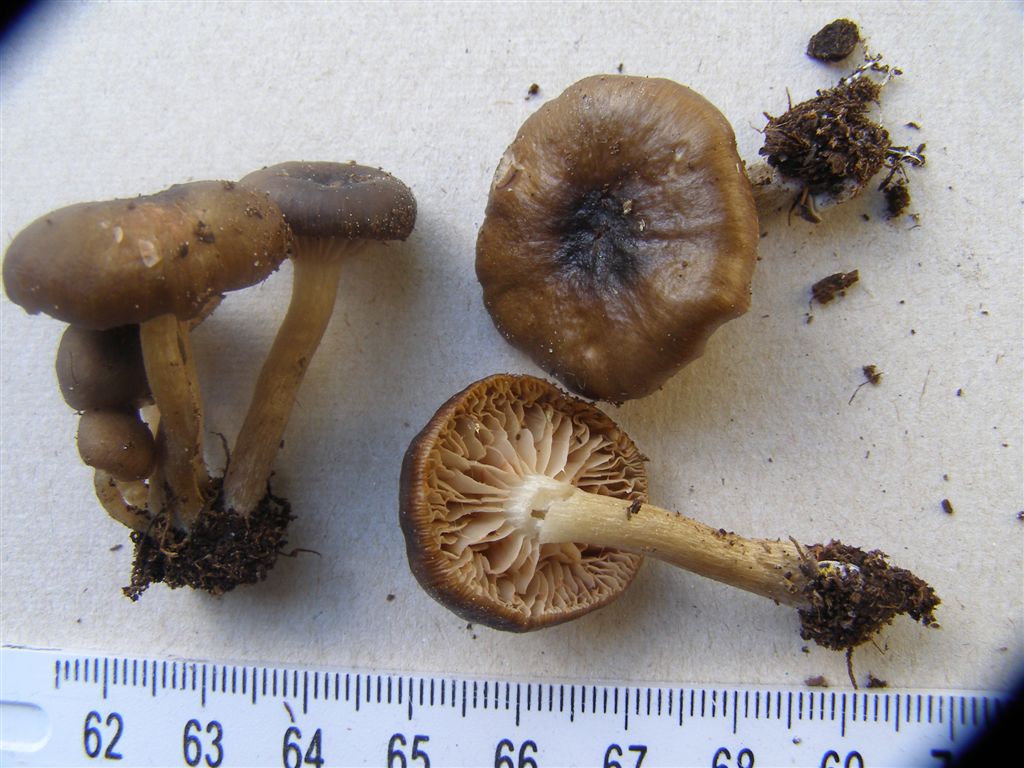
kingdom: Fungi
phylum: Basidiomycota
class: Agaricomycetes
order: Agaricales
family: Entolomataceae
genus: Entoloma
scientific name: Entoloma parkensis
